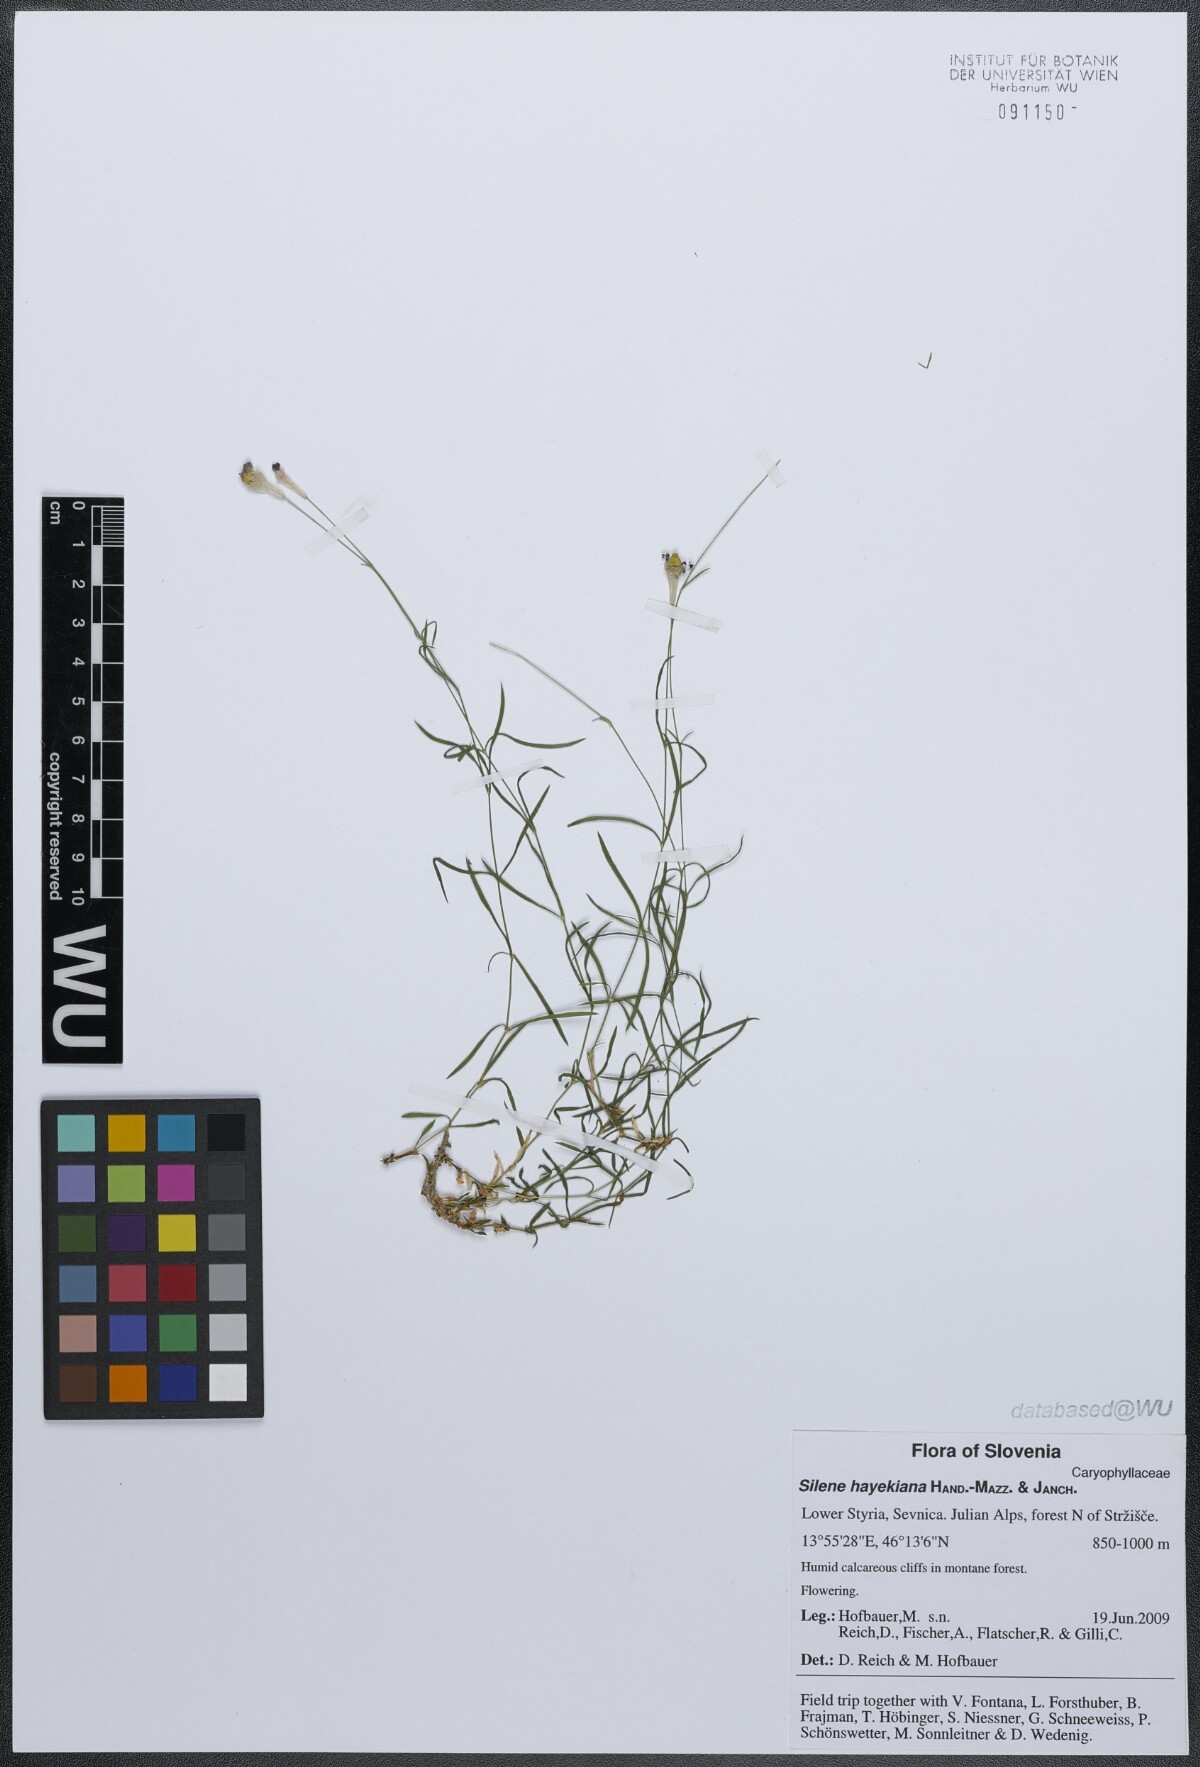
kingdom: Plantae
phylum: Tracheophyta
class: Magnoliopsida
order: Caryophyllales
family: Caryophyllaceae
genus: Silene
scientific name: Silene hayekiana
